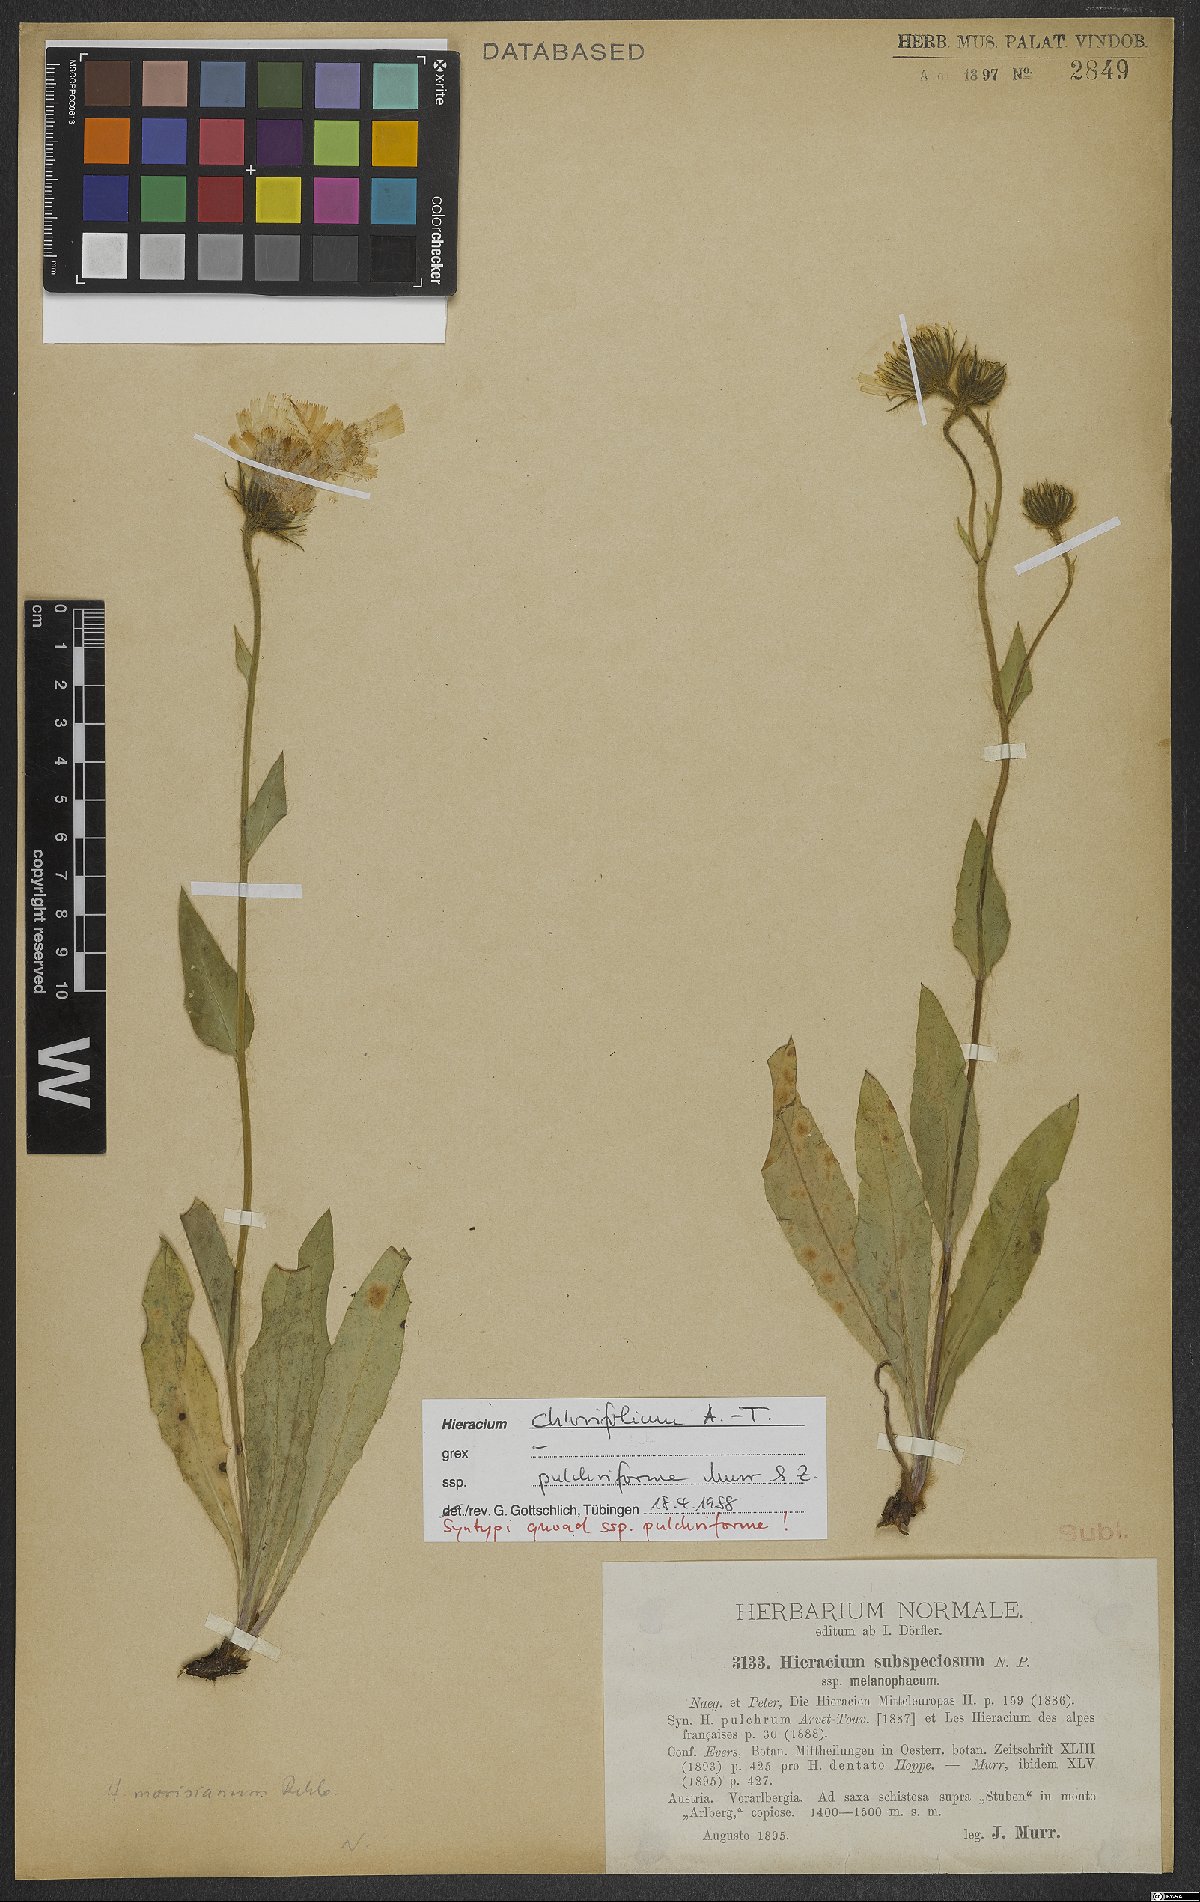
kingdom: Plantae
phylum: Tracheophyta
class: Magnoliopsida
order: Asterales
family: Asteraceae
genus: Hieracium
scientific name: Hieracium chlorifolium
